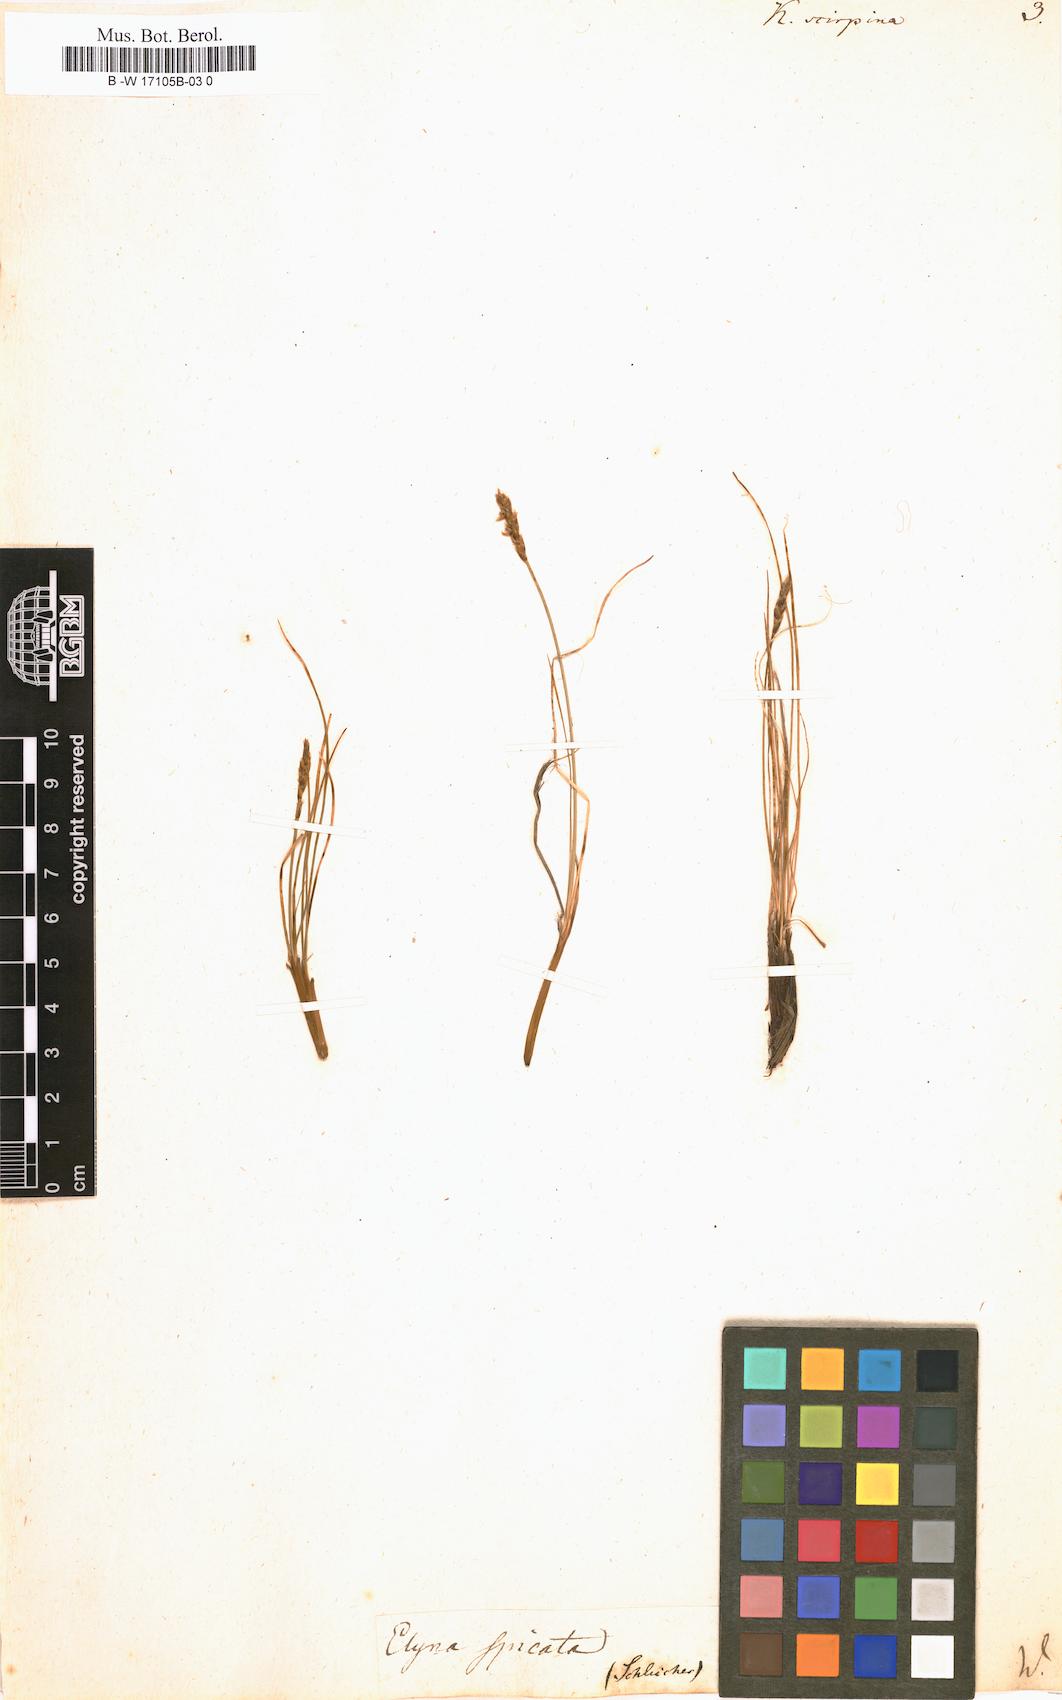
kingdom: Plantae
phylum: Tracheophyta
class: Liliopsida
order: Poales
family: Cyperaceae
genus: Carex
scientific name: Carex myosuroides
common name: Bellard's bog sedge
